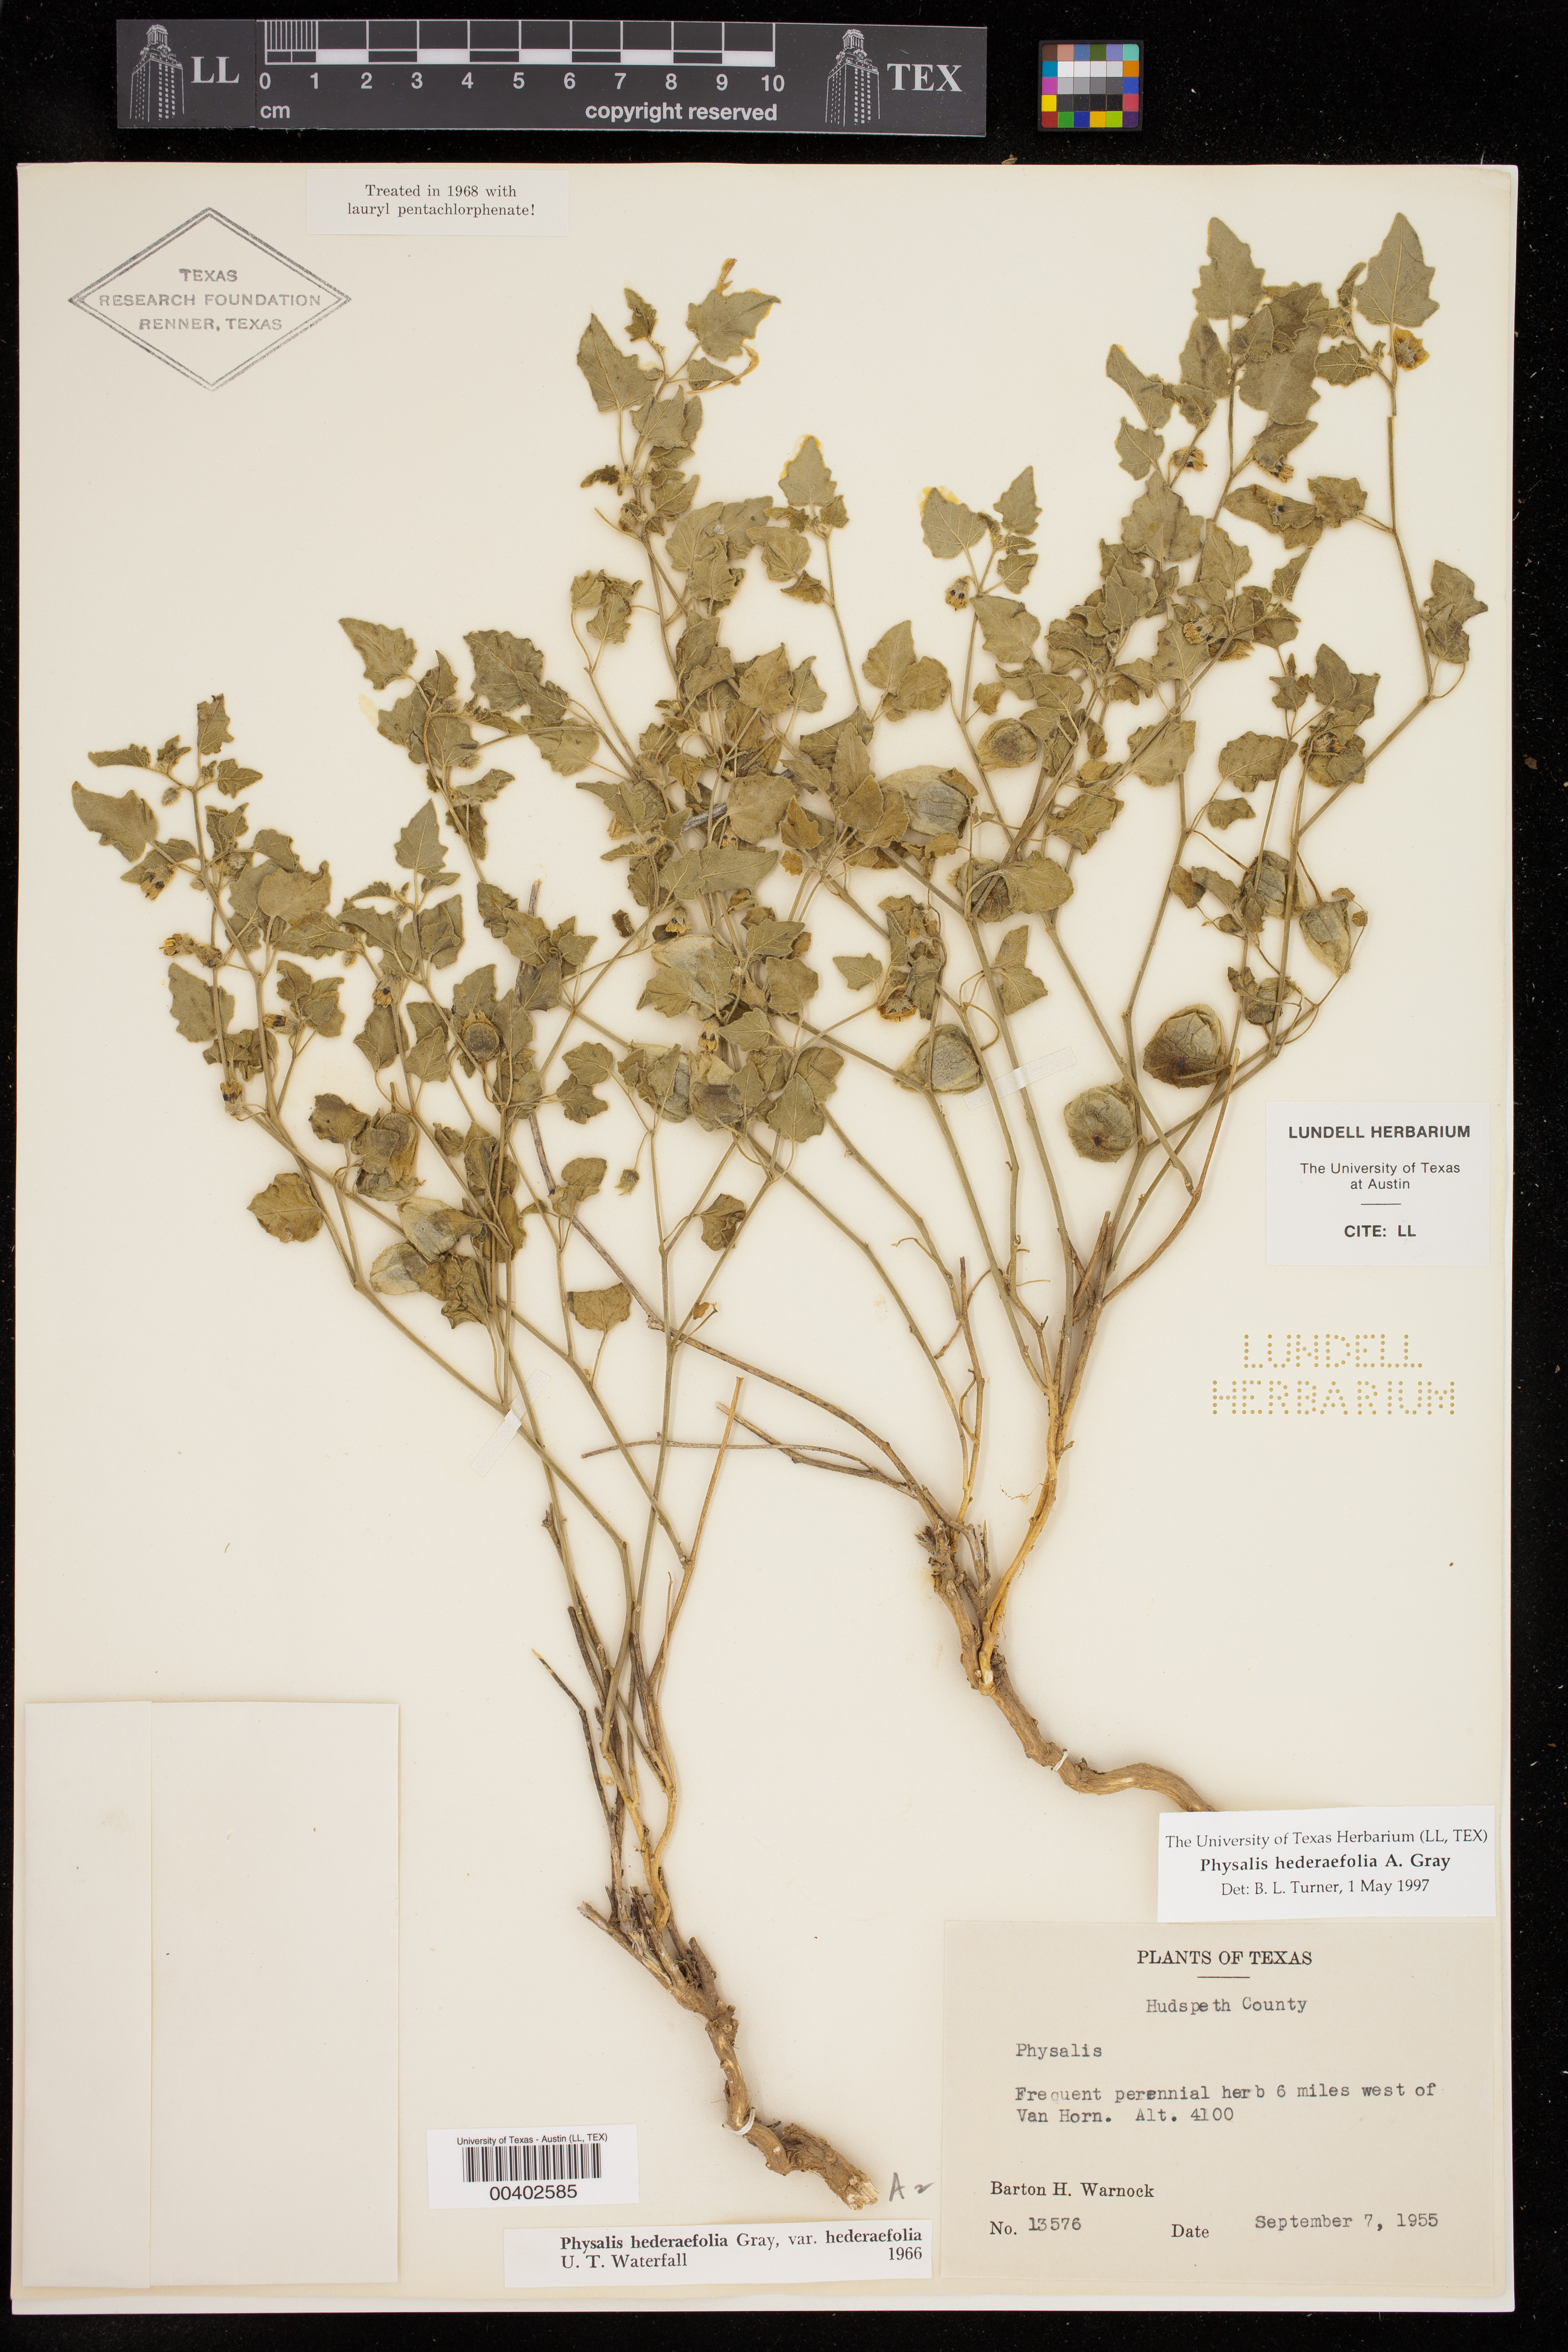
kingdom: Plantae
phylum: Tracheophyta
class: Magnoliopsida
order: Solanales
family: Solanaceae
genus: Physalis
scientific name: Physalis hederifolia
